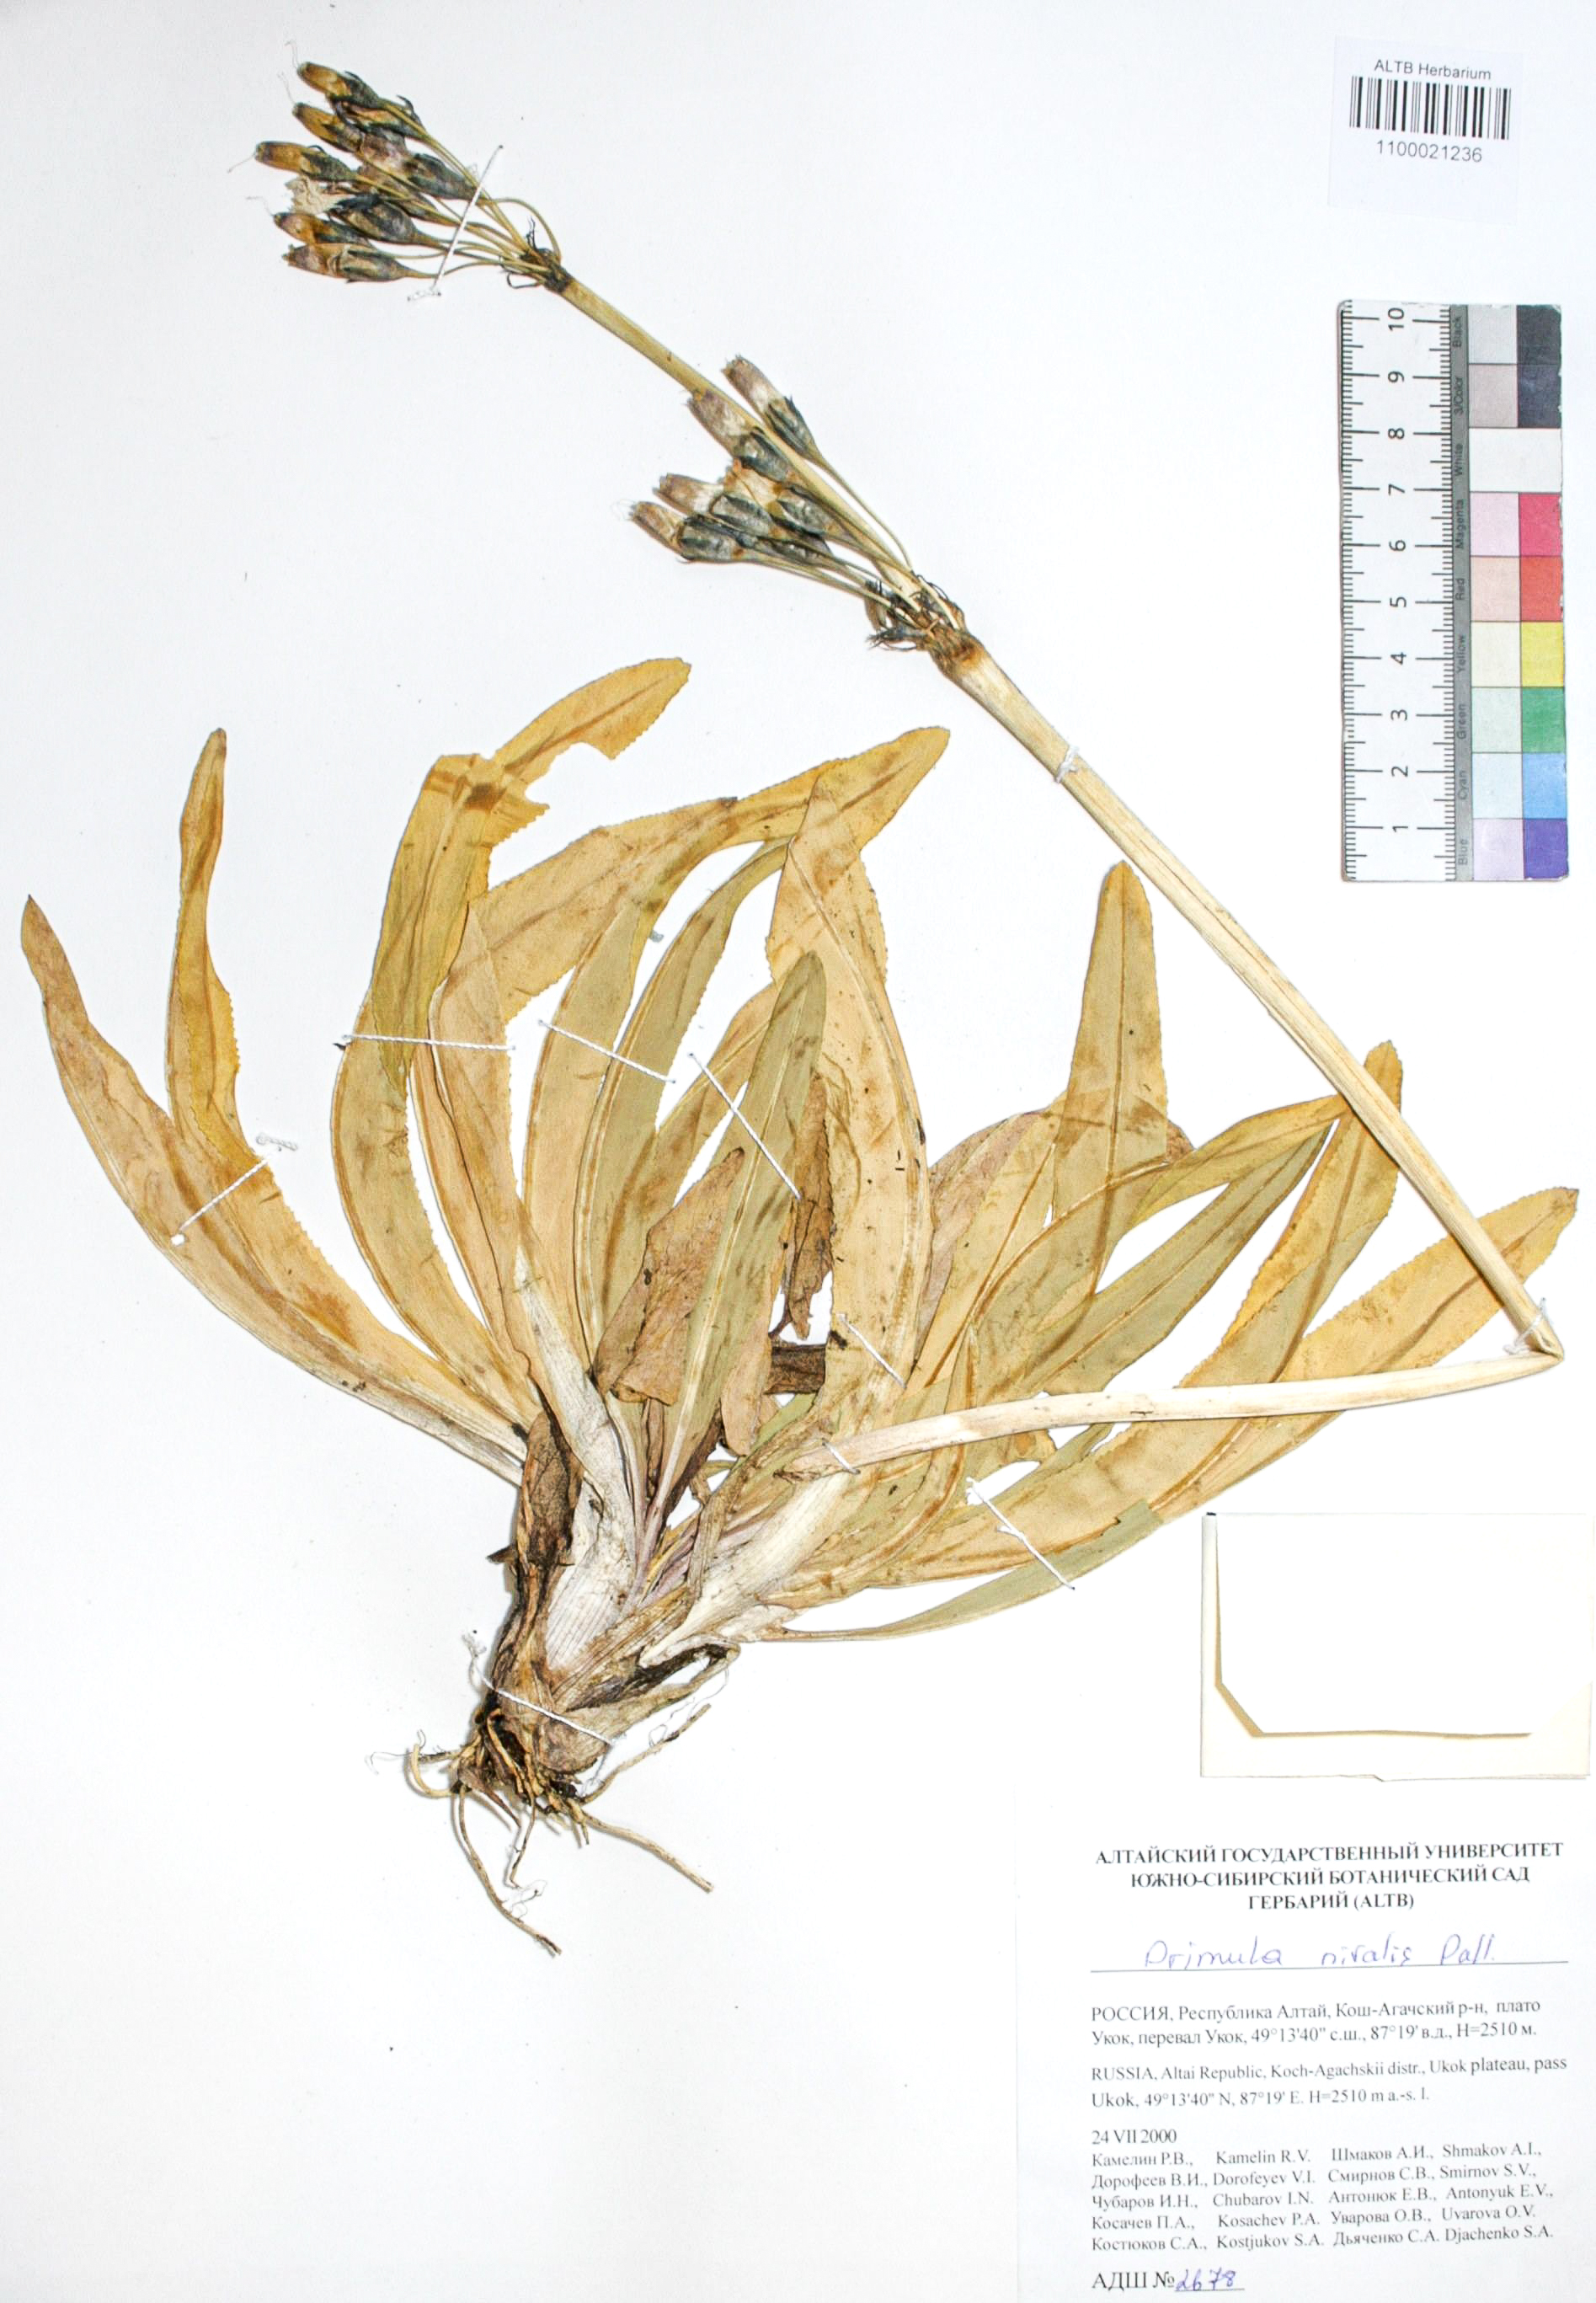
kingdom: Plantae
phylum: Tracheophyta
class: Magnoliopsida
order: Ericales
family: Primulaceae
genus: Primula
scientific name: Primula nivalis
